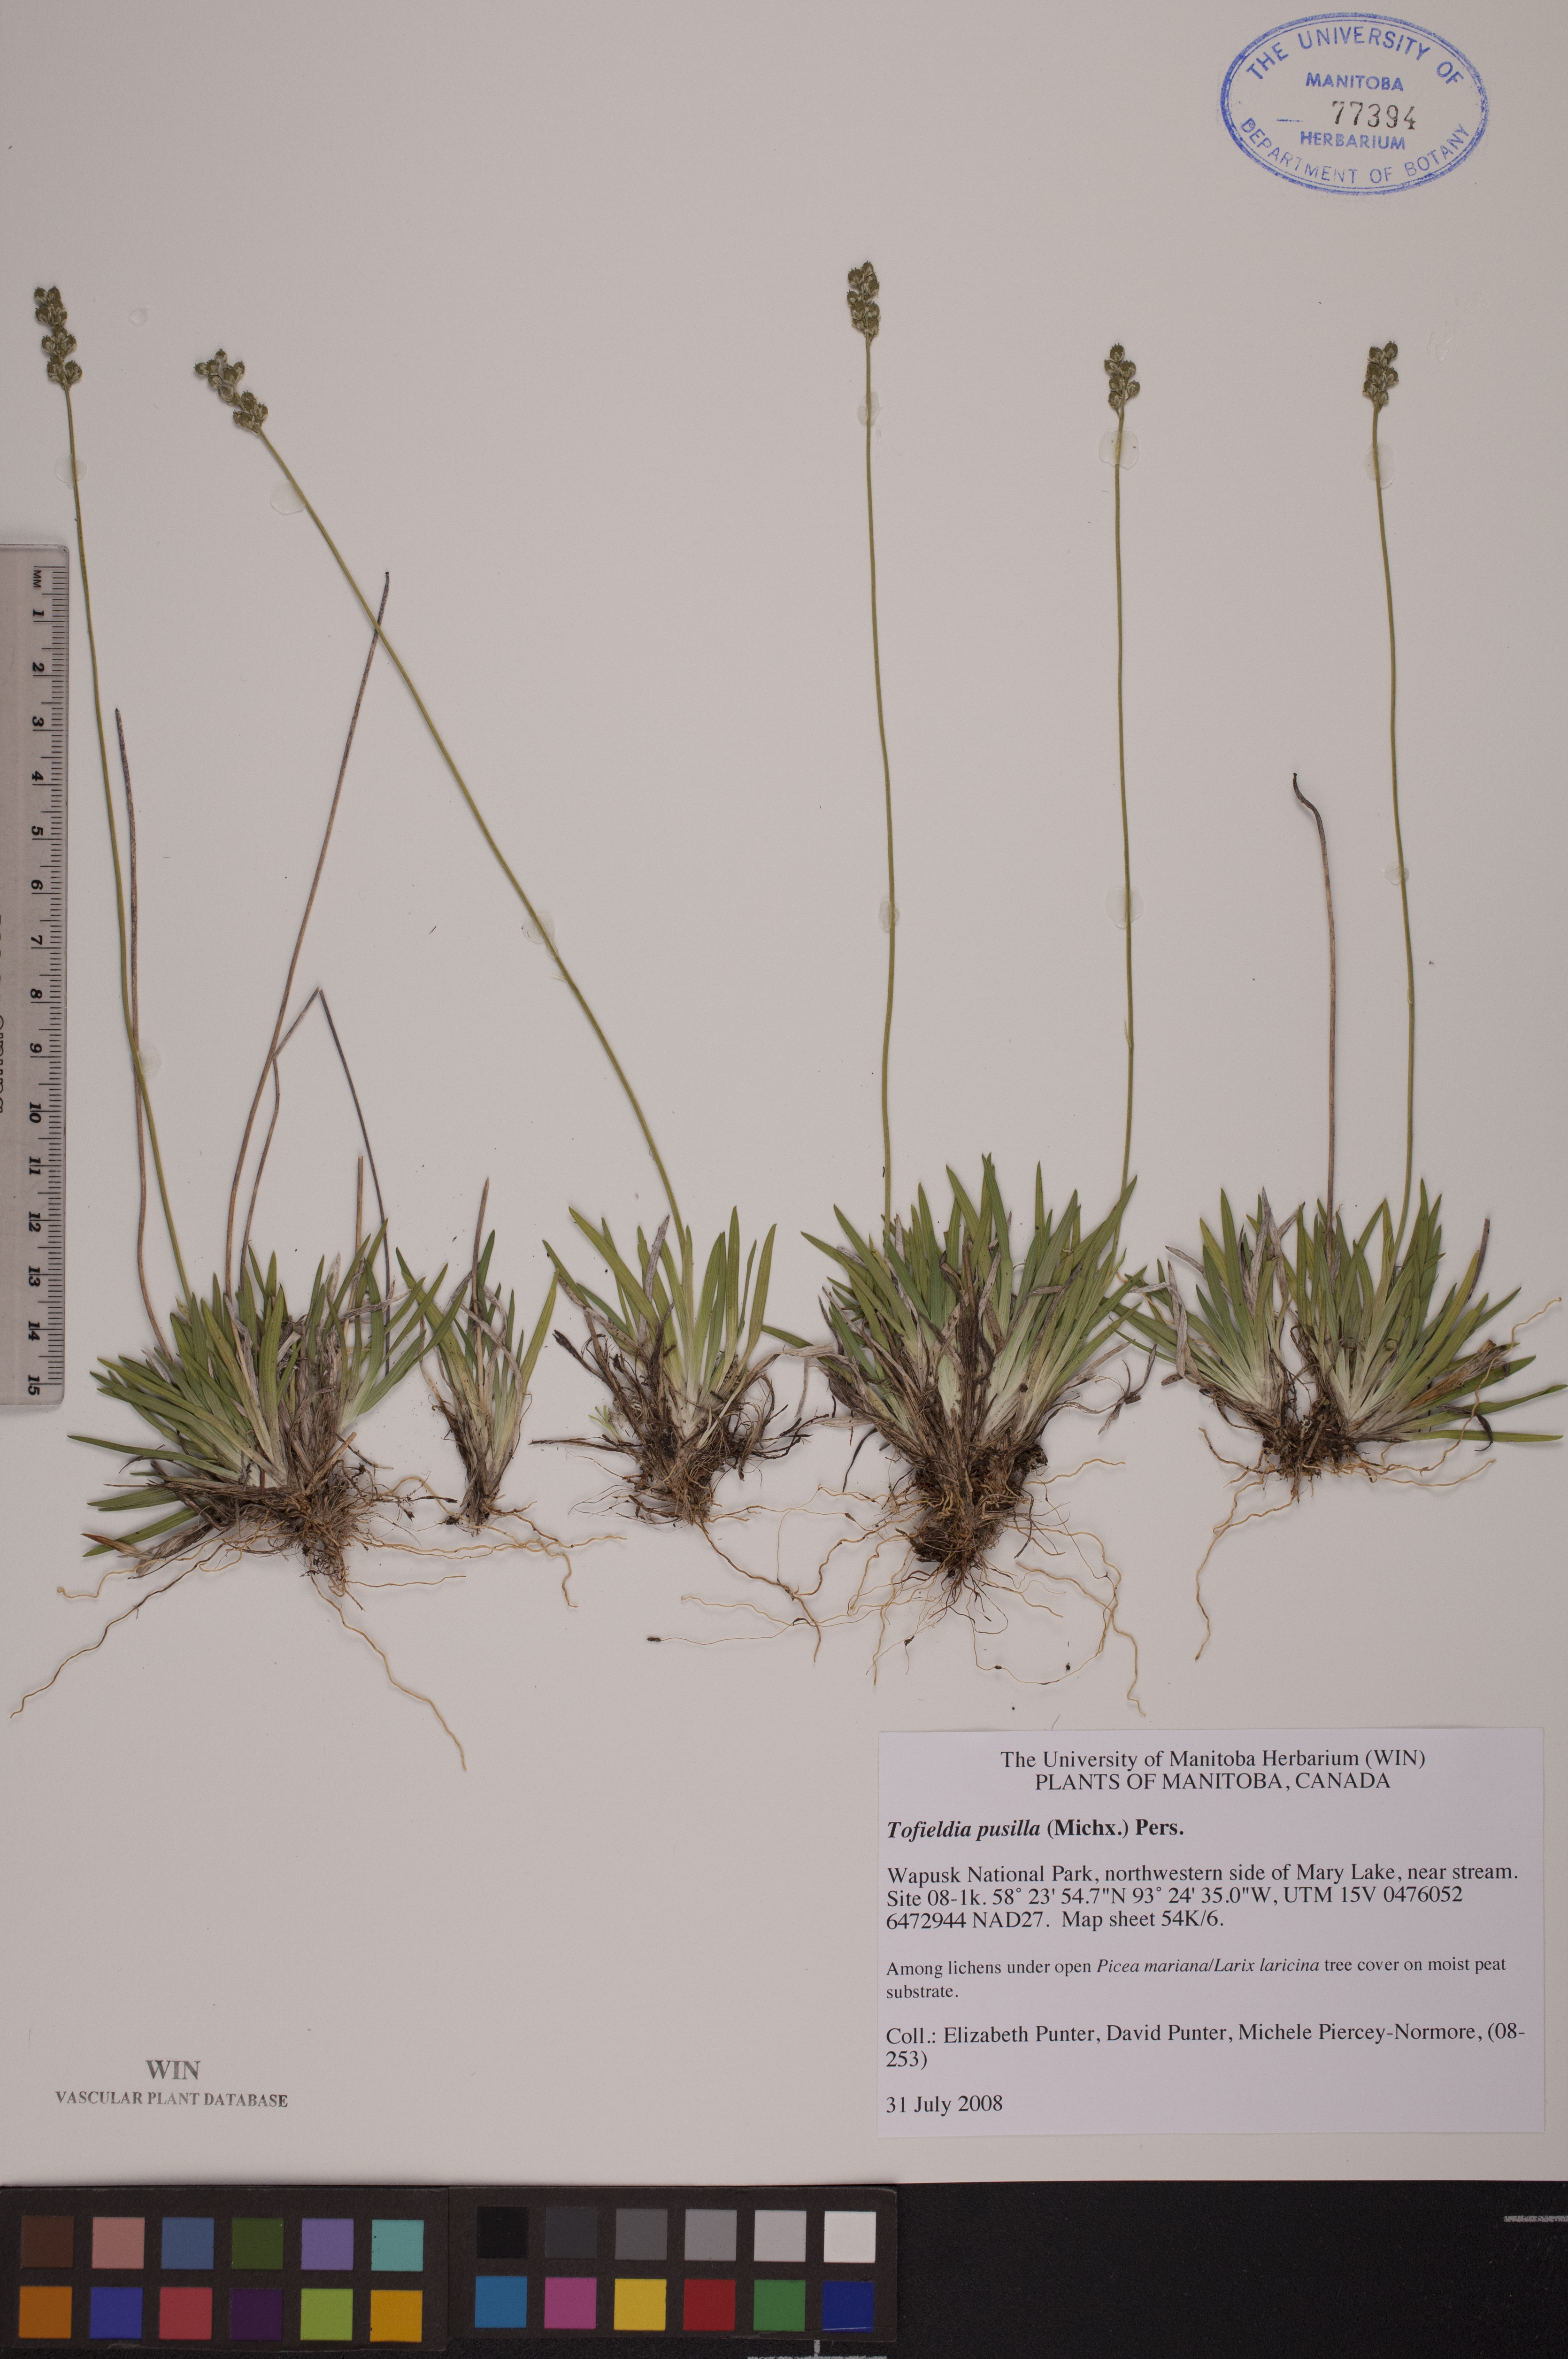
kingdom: Plantae
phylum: Tracheophyta
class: Liliopsida
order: Alismatales
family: Tofieldiaceae
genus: Tofieldia
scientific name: Tofieldia pusilla
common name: Scottish false asphodel
